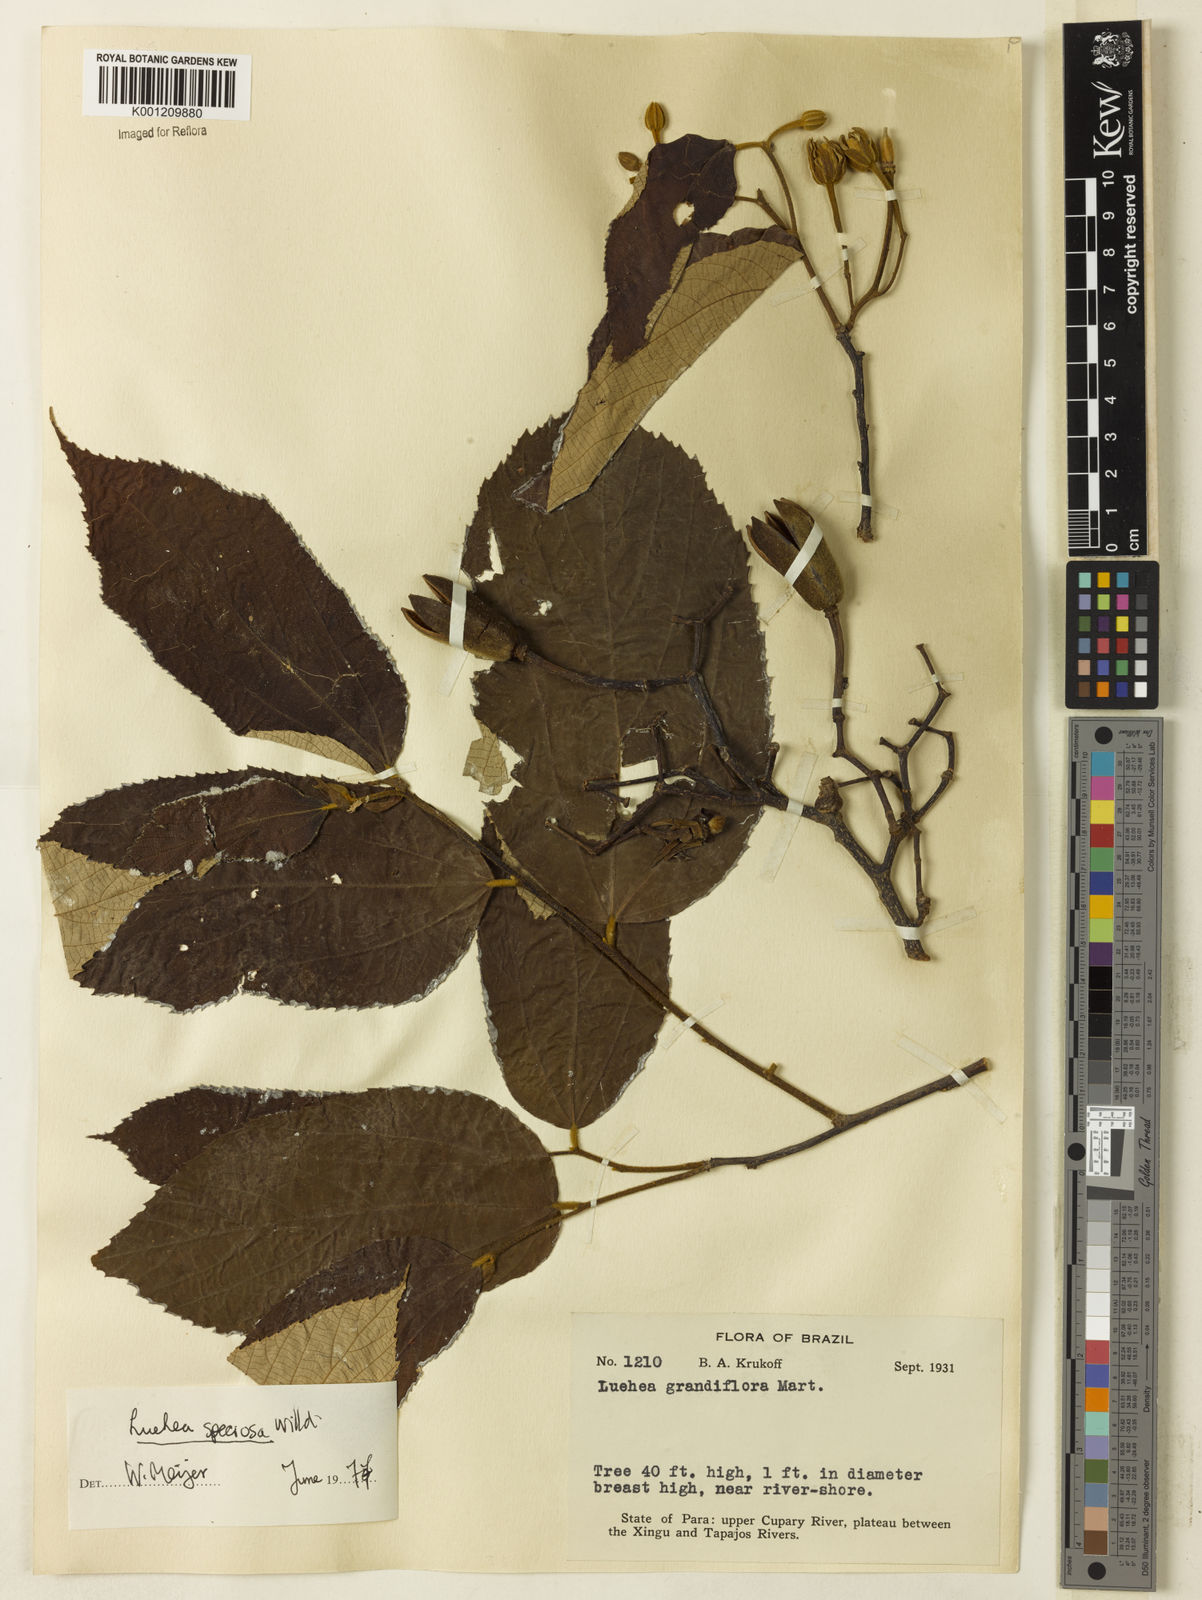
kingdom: Plantae
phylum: Tracheophyta
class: Magnoliopsida
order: Malvales
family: Malvaceae
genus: Luehea
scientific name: Luehea speciosa
